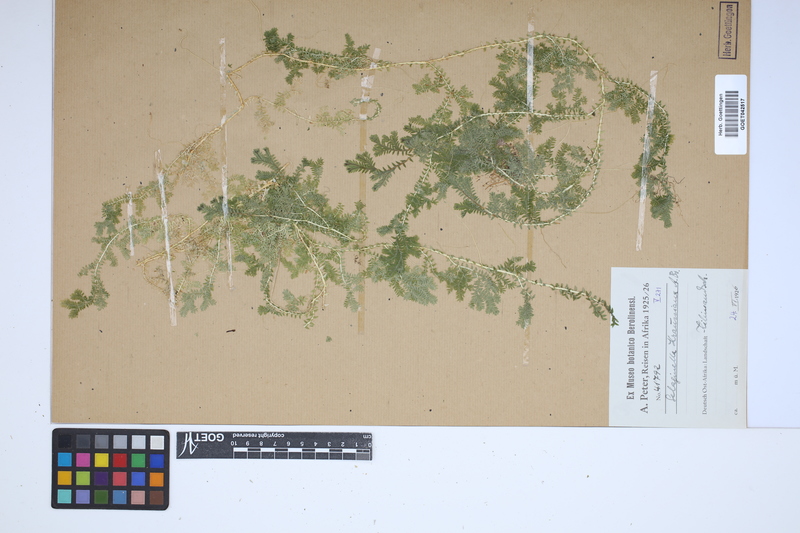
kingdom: Plantae
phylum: Tracheophyta
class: Lycopodiopsida
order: Selaginellales
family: Selaginellaceae
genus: Selaginella
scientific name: Selaginella kraussiana
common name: Krauss' spikemoss
